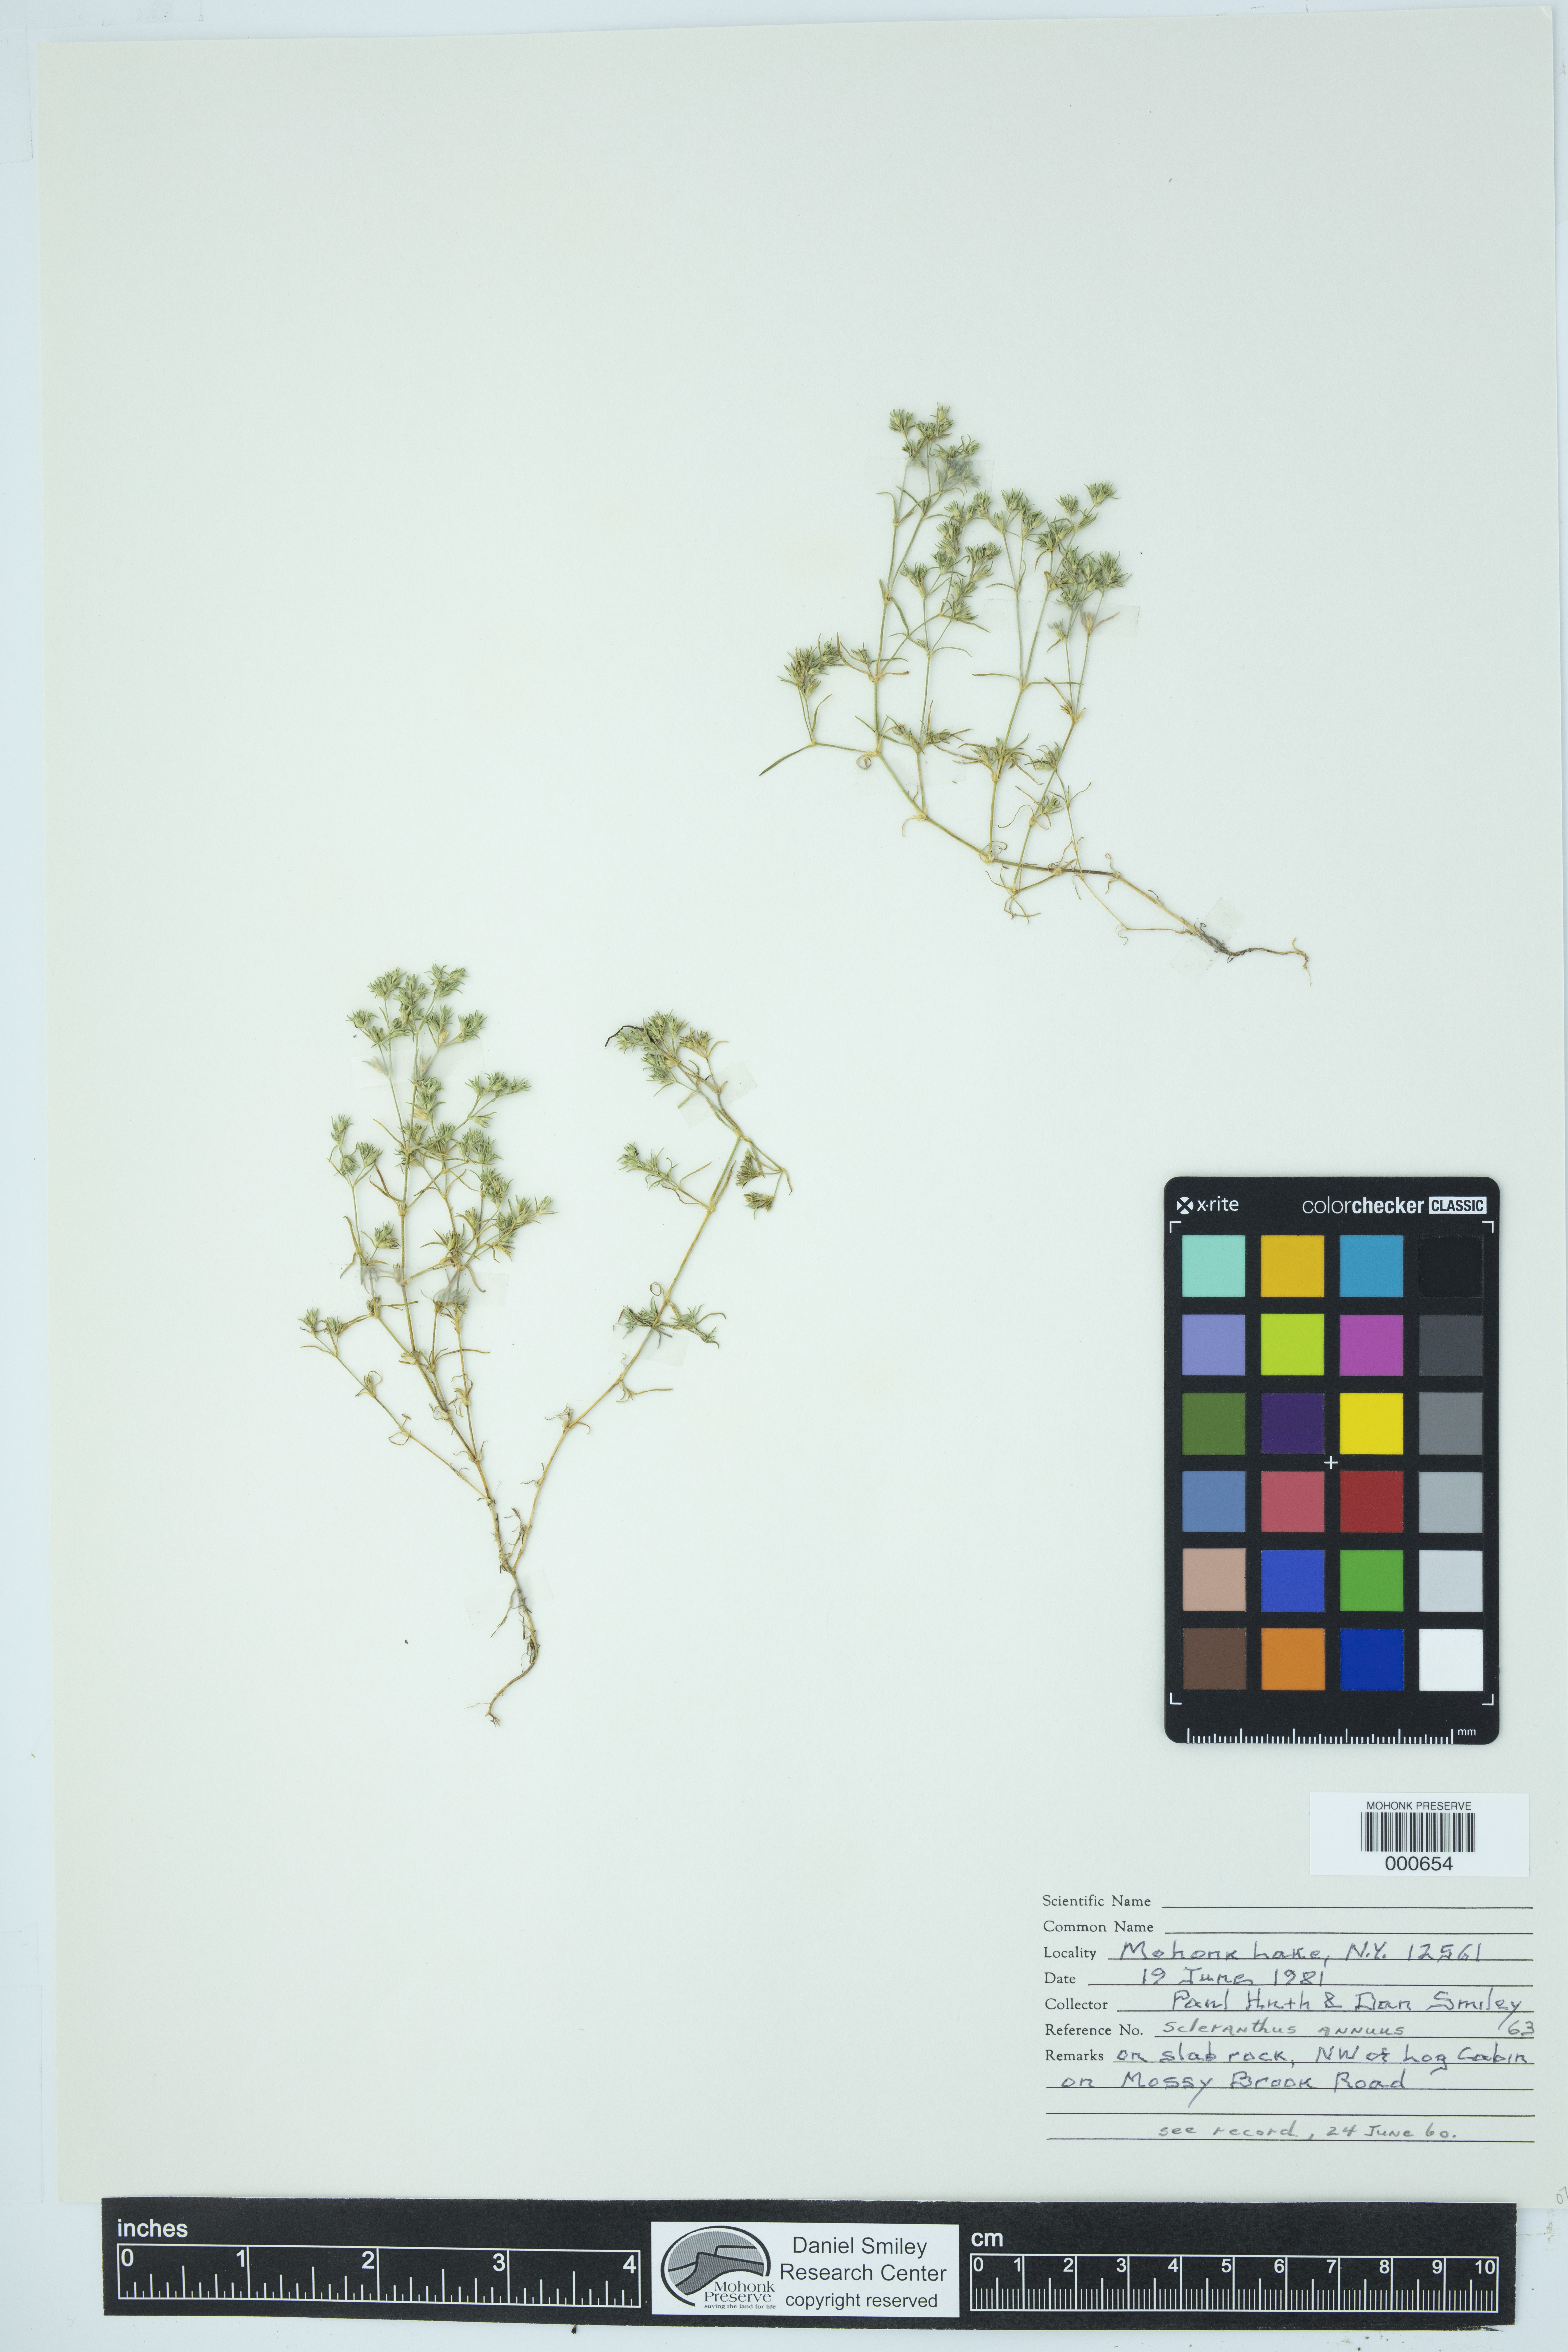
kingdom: Plantae
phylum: Tracheophyta
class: Magnoliopsida
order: Caryophyllales
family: Caryophyllaceae
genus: Scleranthus
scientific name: Scleranthus annuus
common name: Annual knawel
